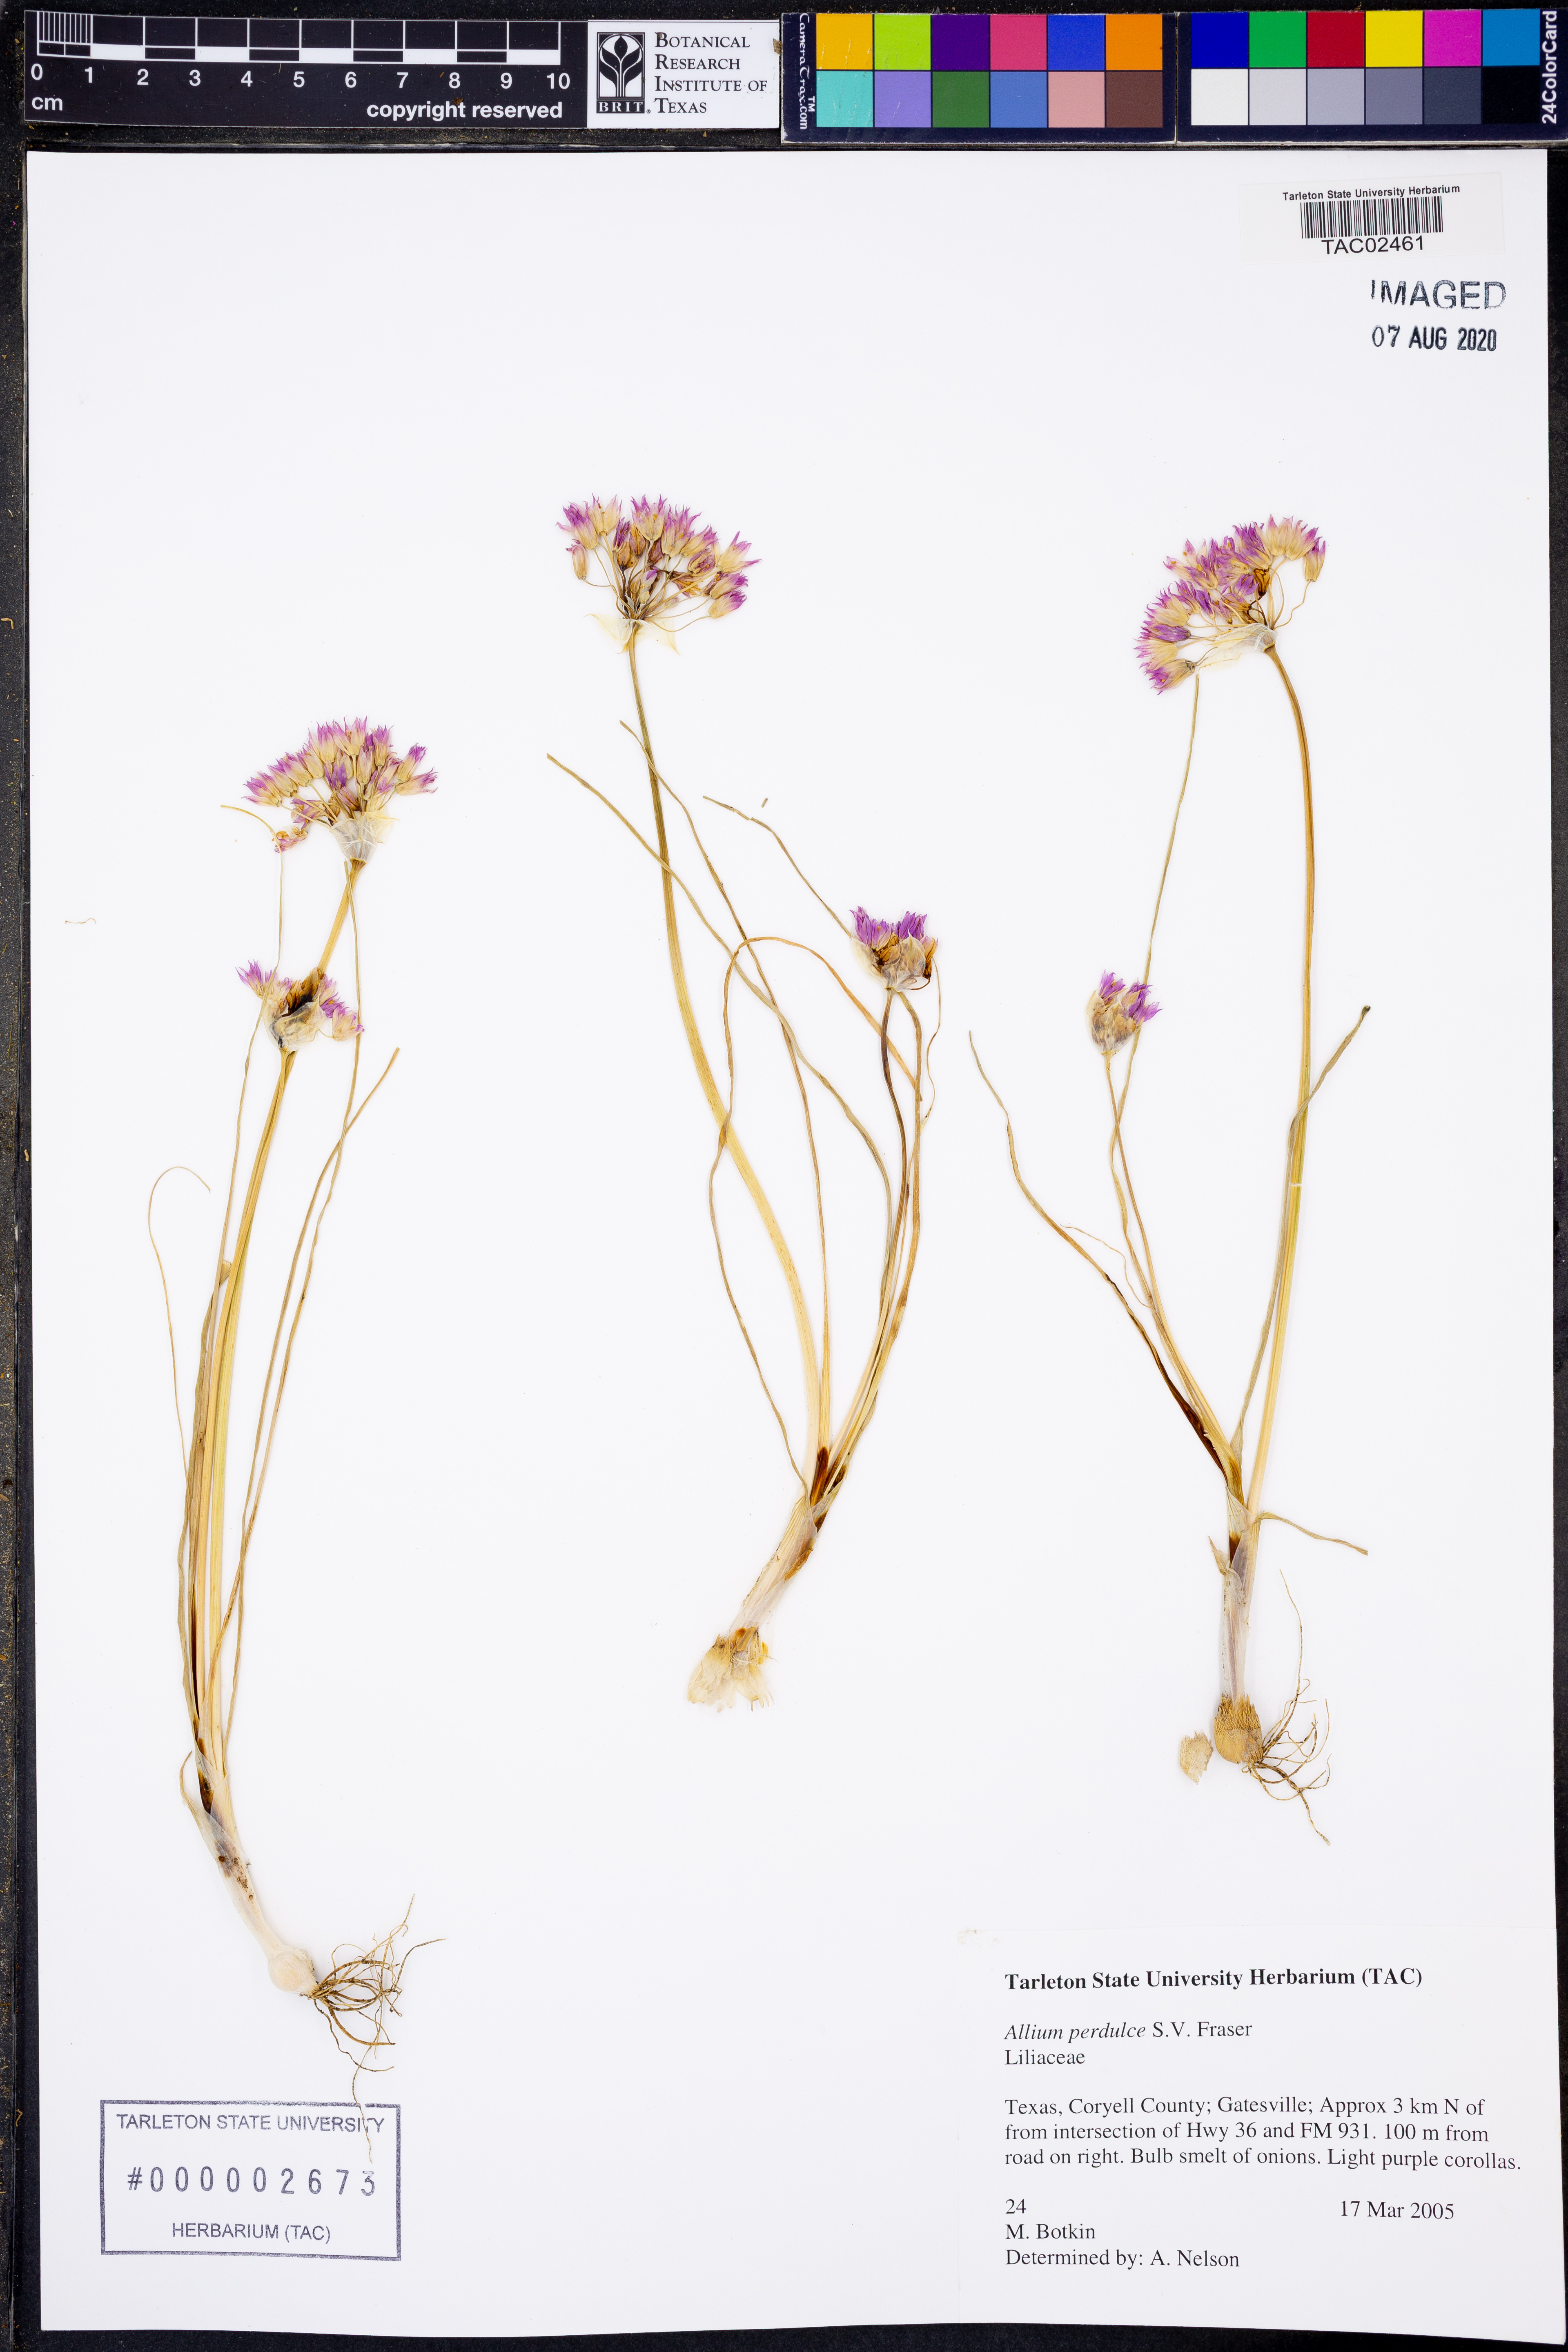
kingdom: Plantae
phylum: Tracheophyta
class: Liliopsida
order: Asparagales
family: Amaryllidaceae
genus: Allium
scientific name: Allium perdulce
